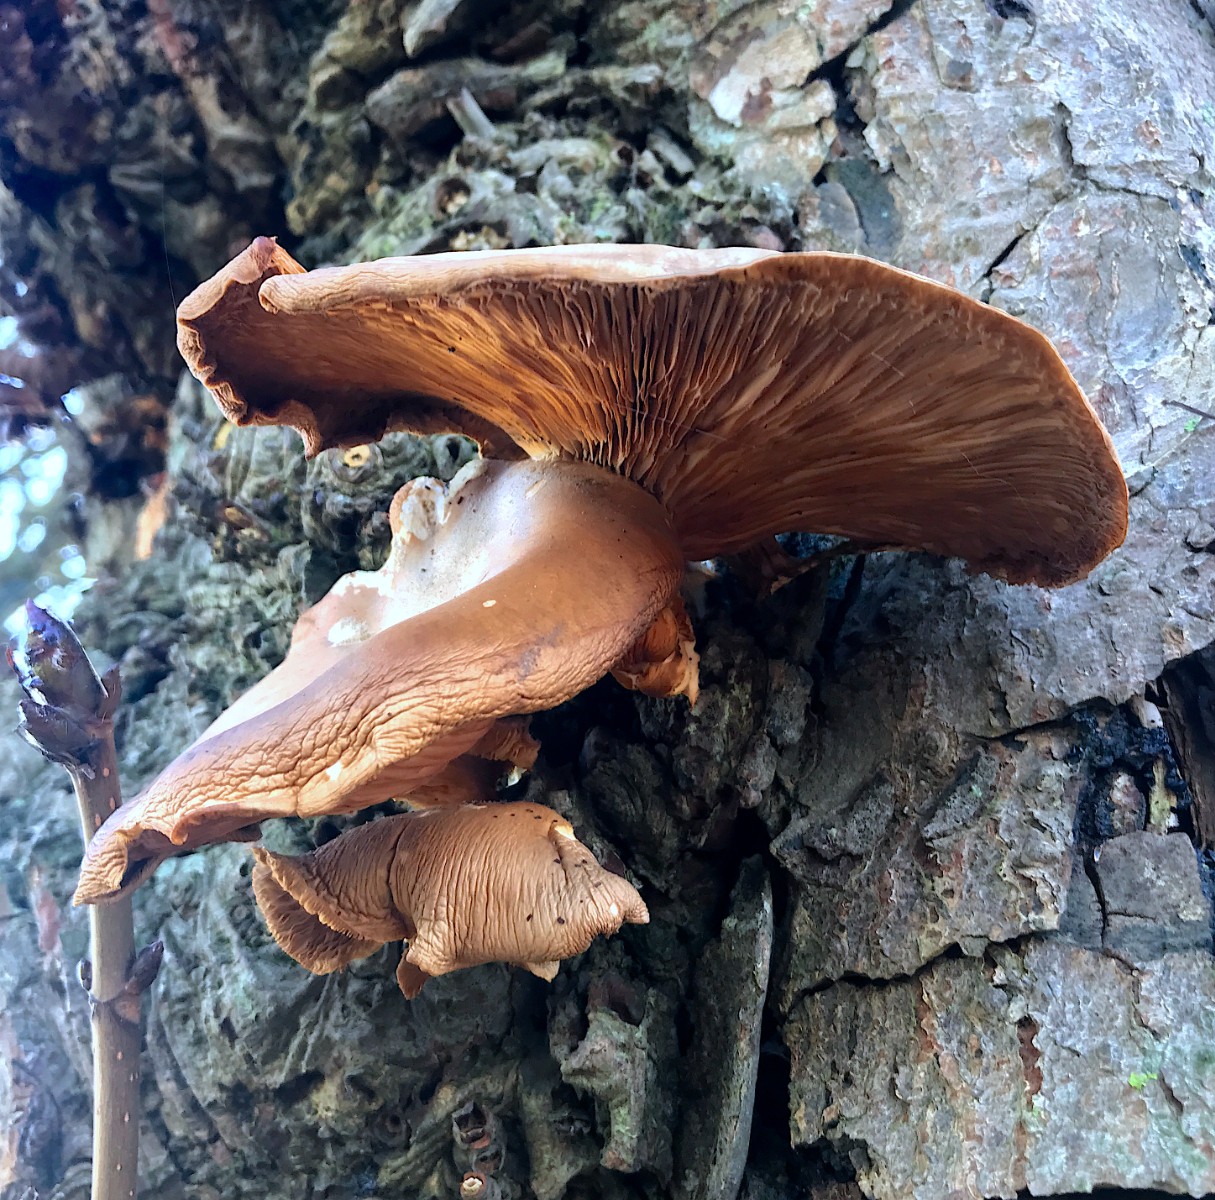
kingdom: Fungi
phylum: Basidiomycota
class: Agaricomycetes
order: Agaricales
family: Pleurotaceae
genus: Pleurotus
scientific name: Pleurotus ostreatus
